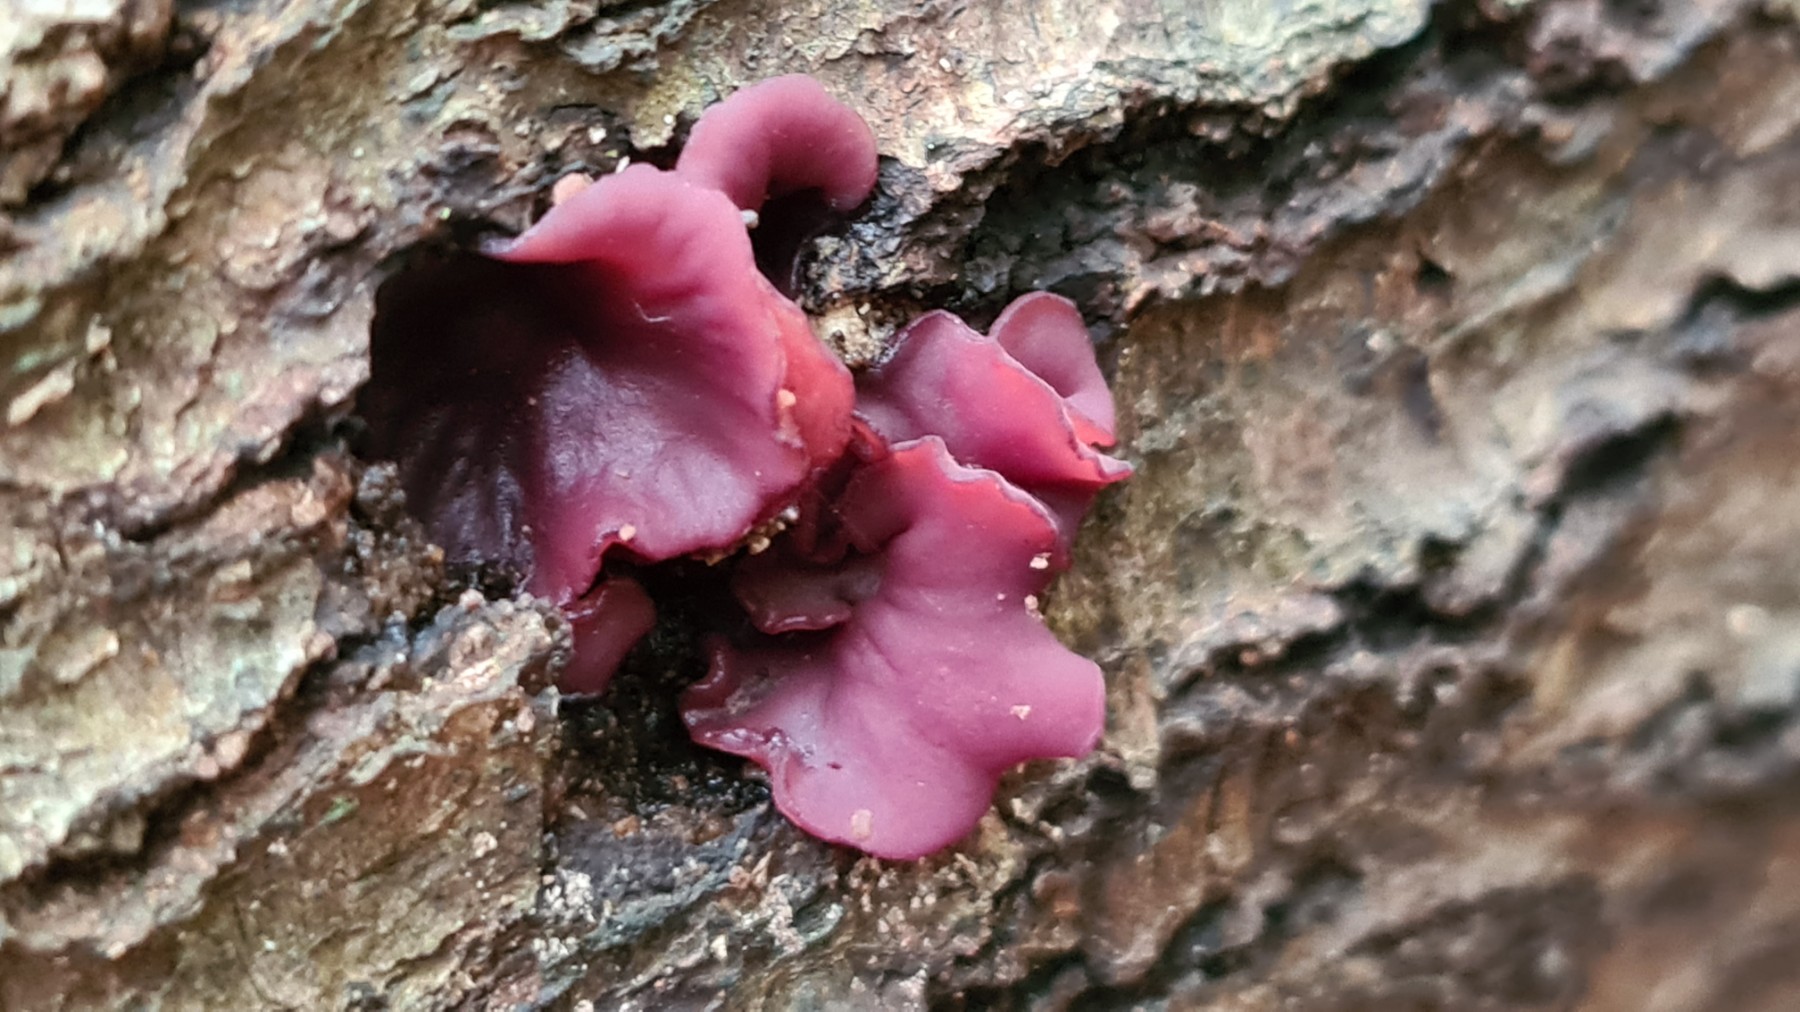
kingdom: Fungi
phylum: Ascomycota
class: Leotiomycetes
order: Helotiales
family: Gelatinodiscaceae
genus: Ascocoryne
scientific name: Ascocoryne cylichnium
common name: stor sejskive
